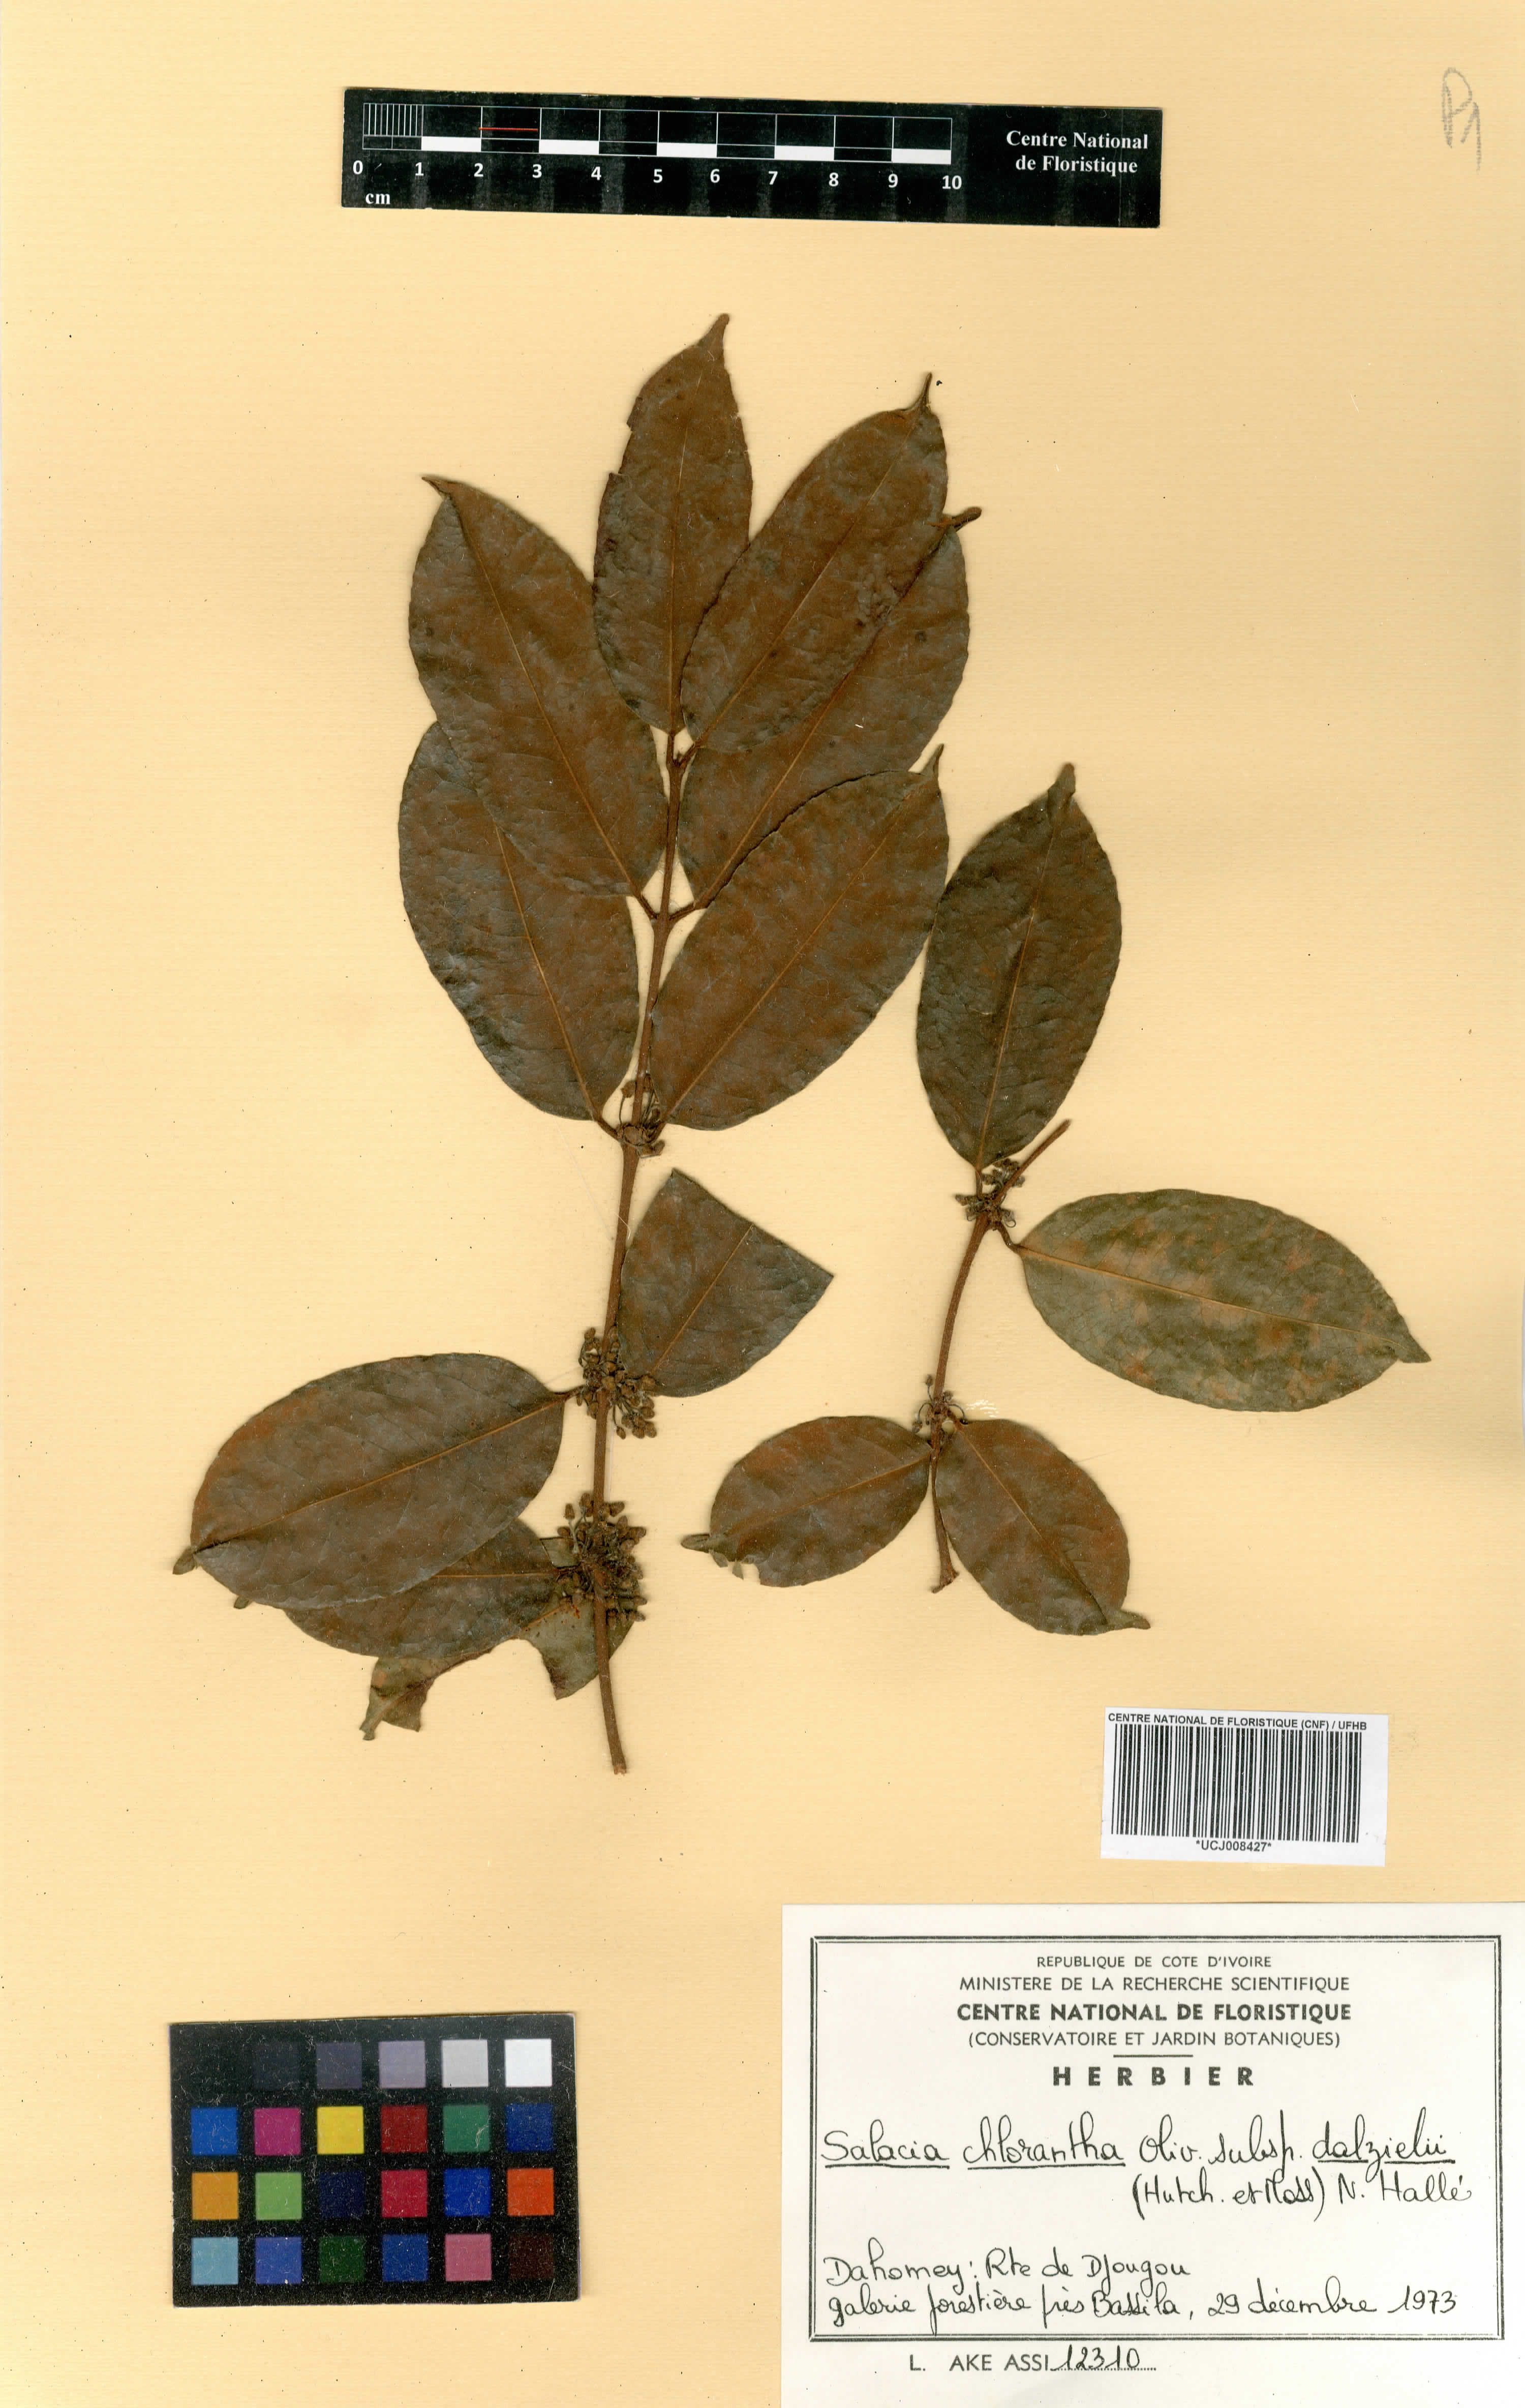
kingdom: Plantae
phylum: Tracheophyta
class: Magnoliopsida
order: Celastrales
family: Celastraceae
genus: Salacia
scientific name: Salacia chlorantha
